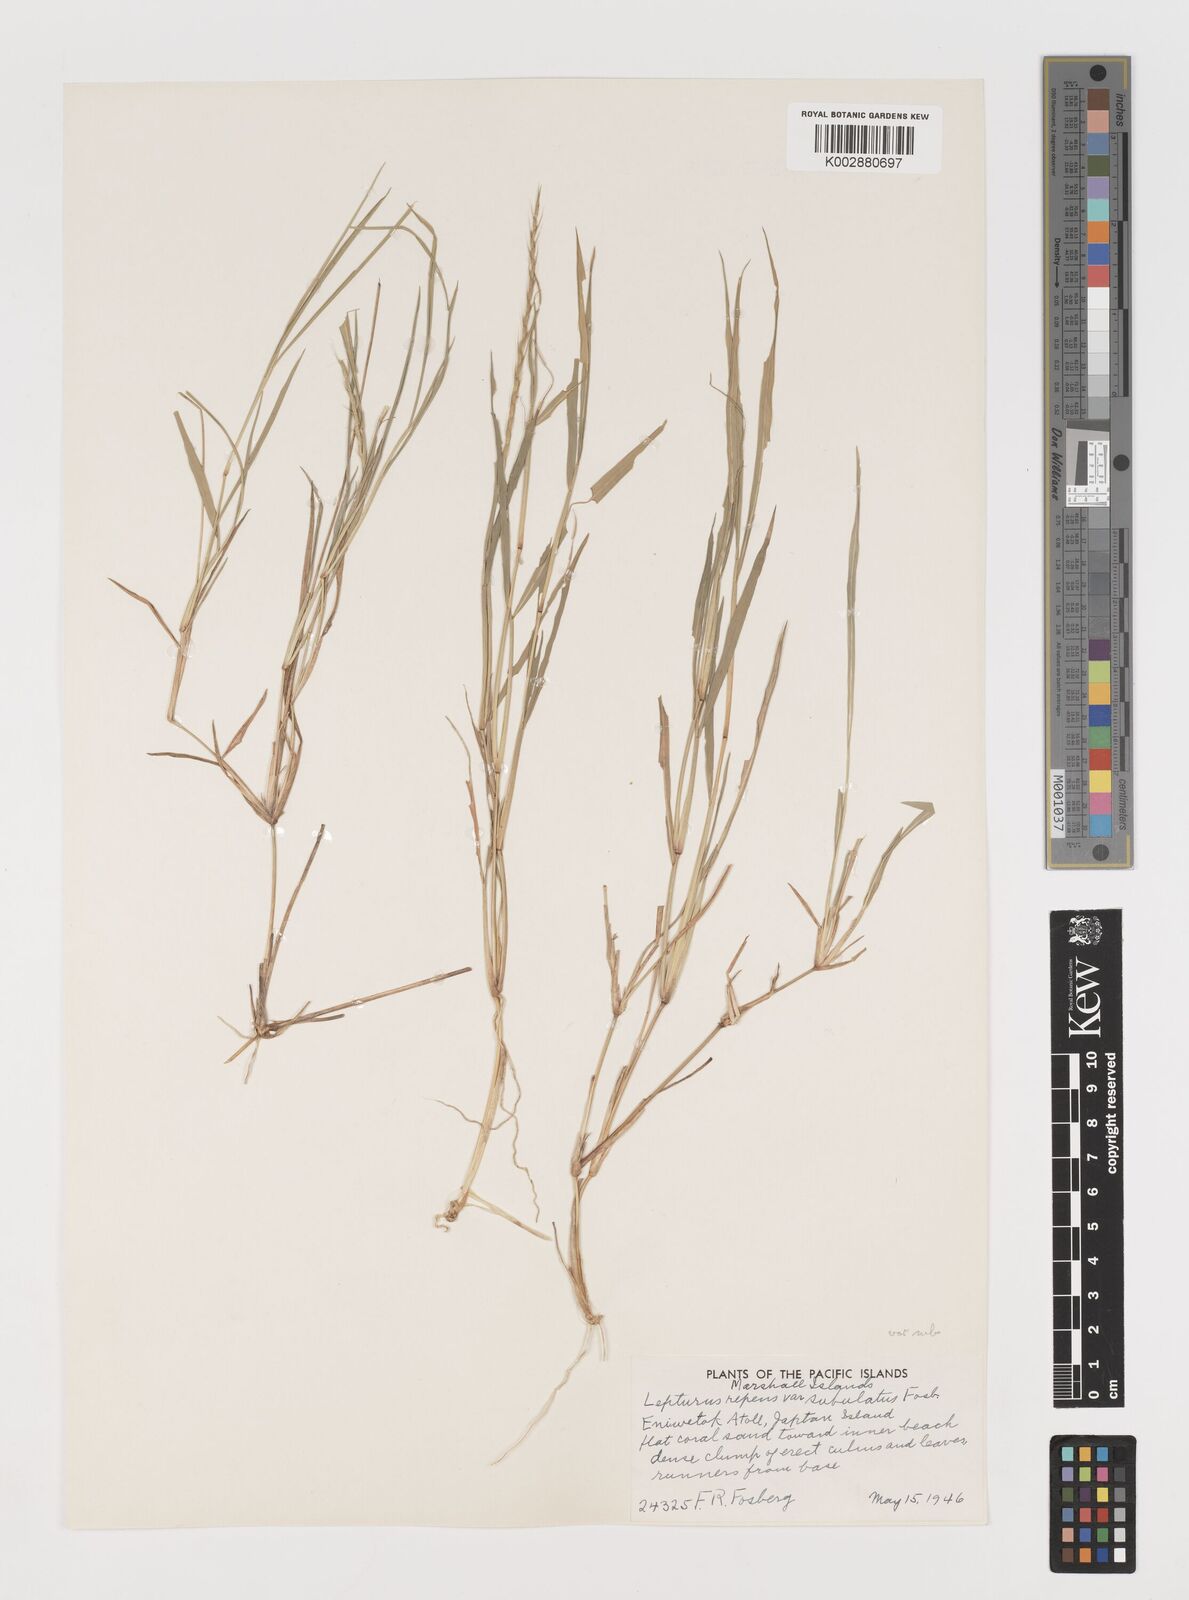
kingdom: Plantae
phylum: Tracheophyta
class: Liliopsida
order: Poales
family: Poaceae
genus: Lepturus
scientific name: Lepturus repens
